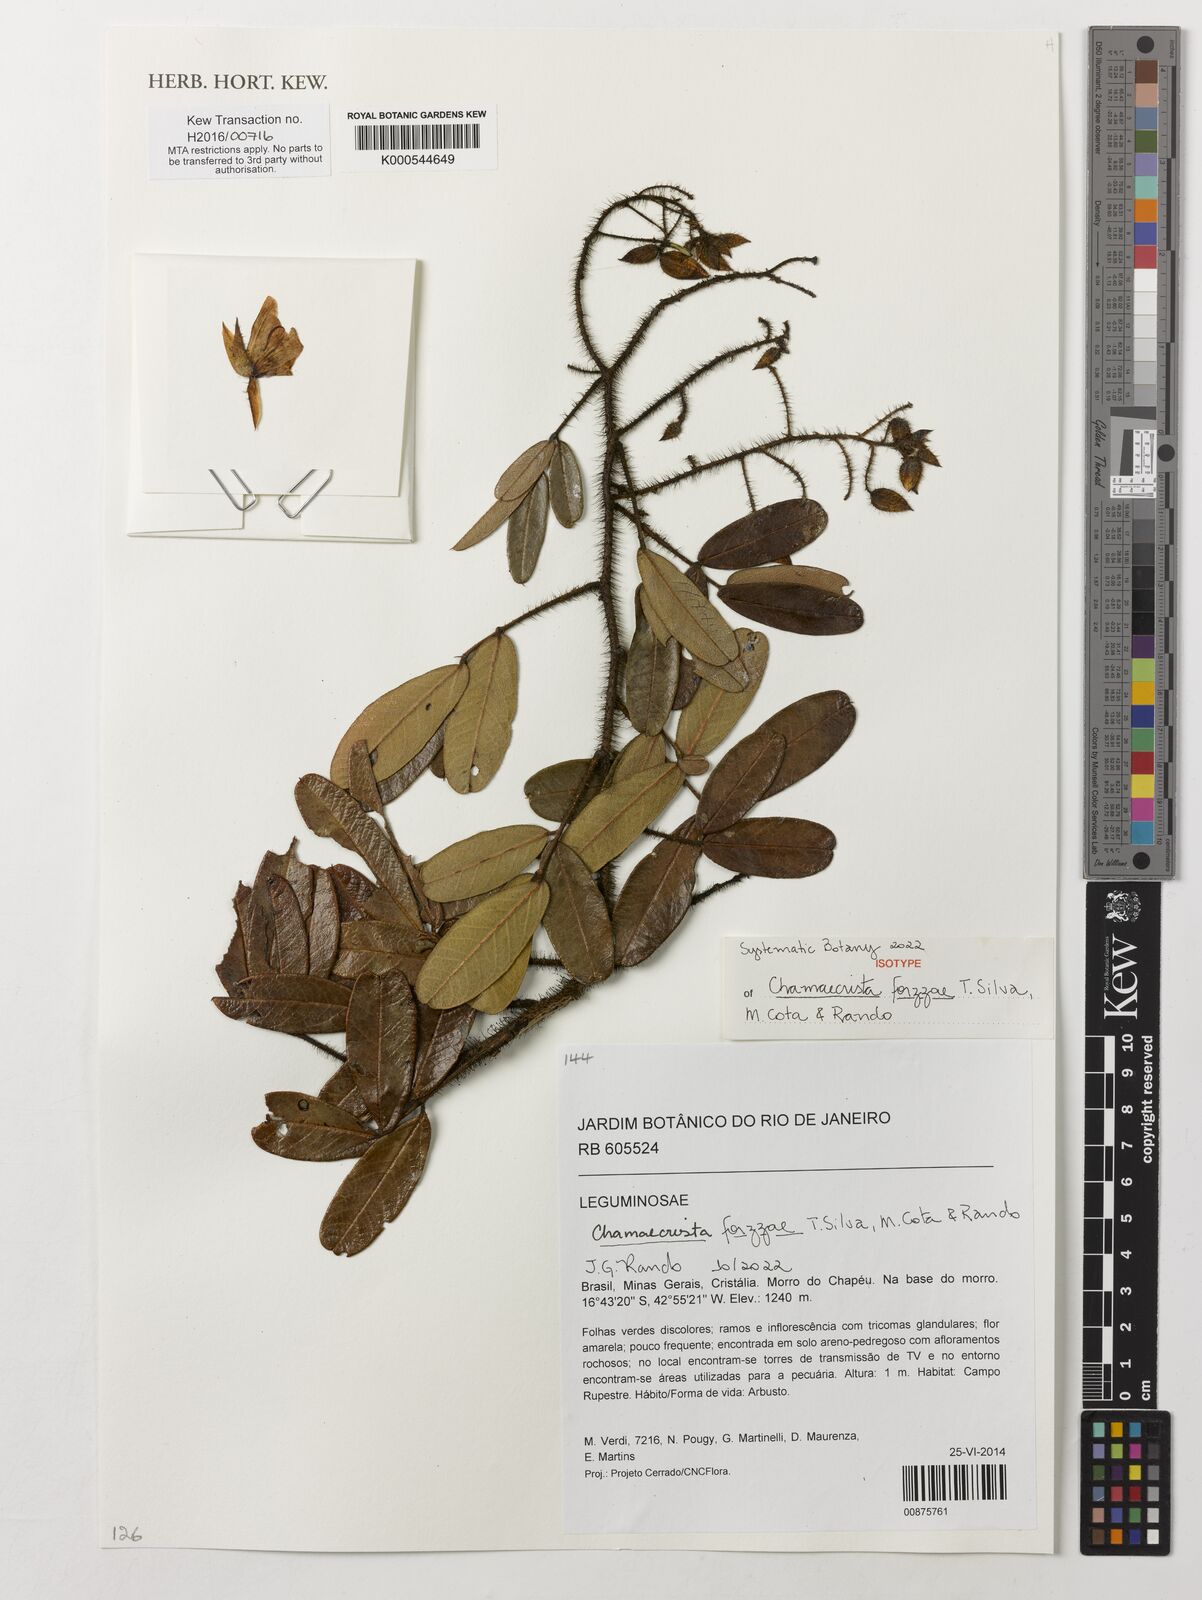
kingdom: Plantae
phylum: Tracheophyta
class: Magnoliopsida
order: Fabales
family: Fabaceae
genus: Chamaecrista
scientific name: Chamaecrista
